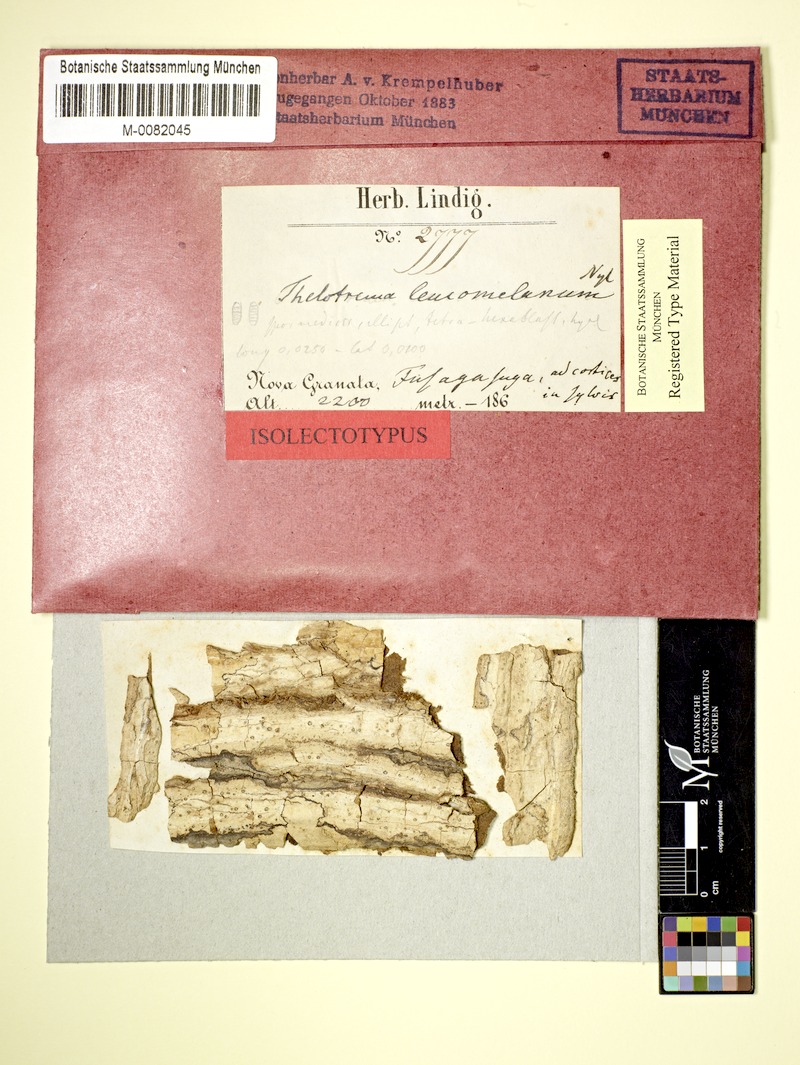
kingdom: Fungi
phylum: Ascomycota
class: Lecanoromycetes
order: Ostropales
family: Graphidaceae
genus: Thelotrema
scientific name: Thelotrema leucomelaenum
